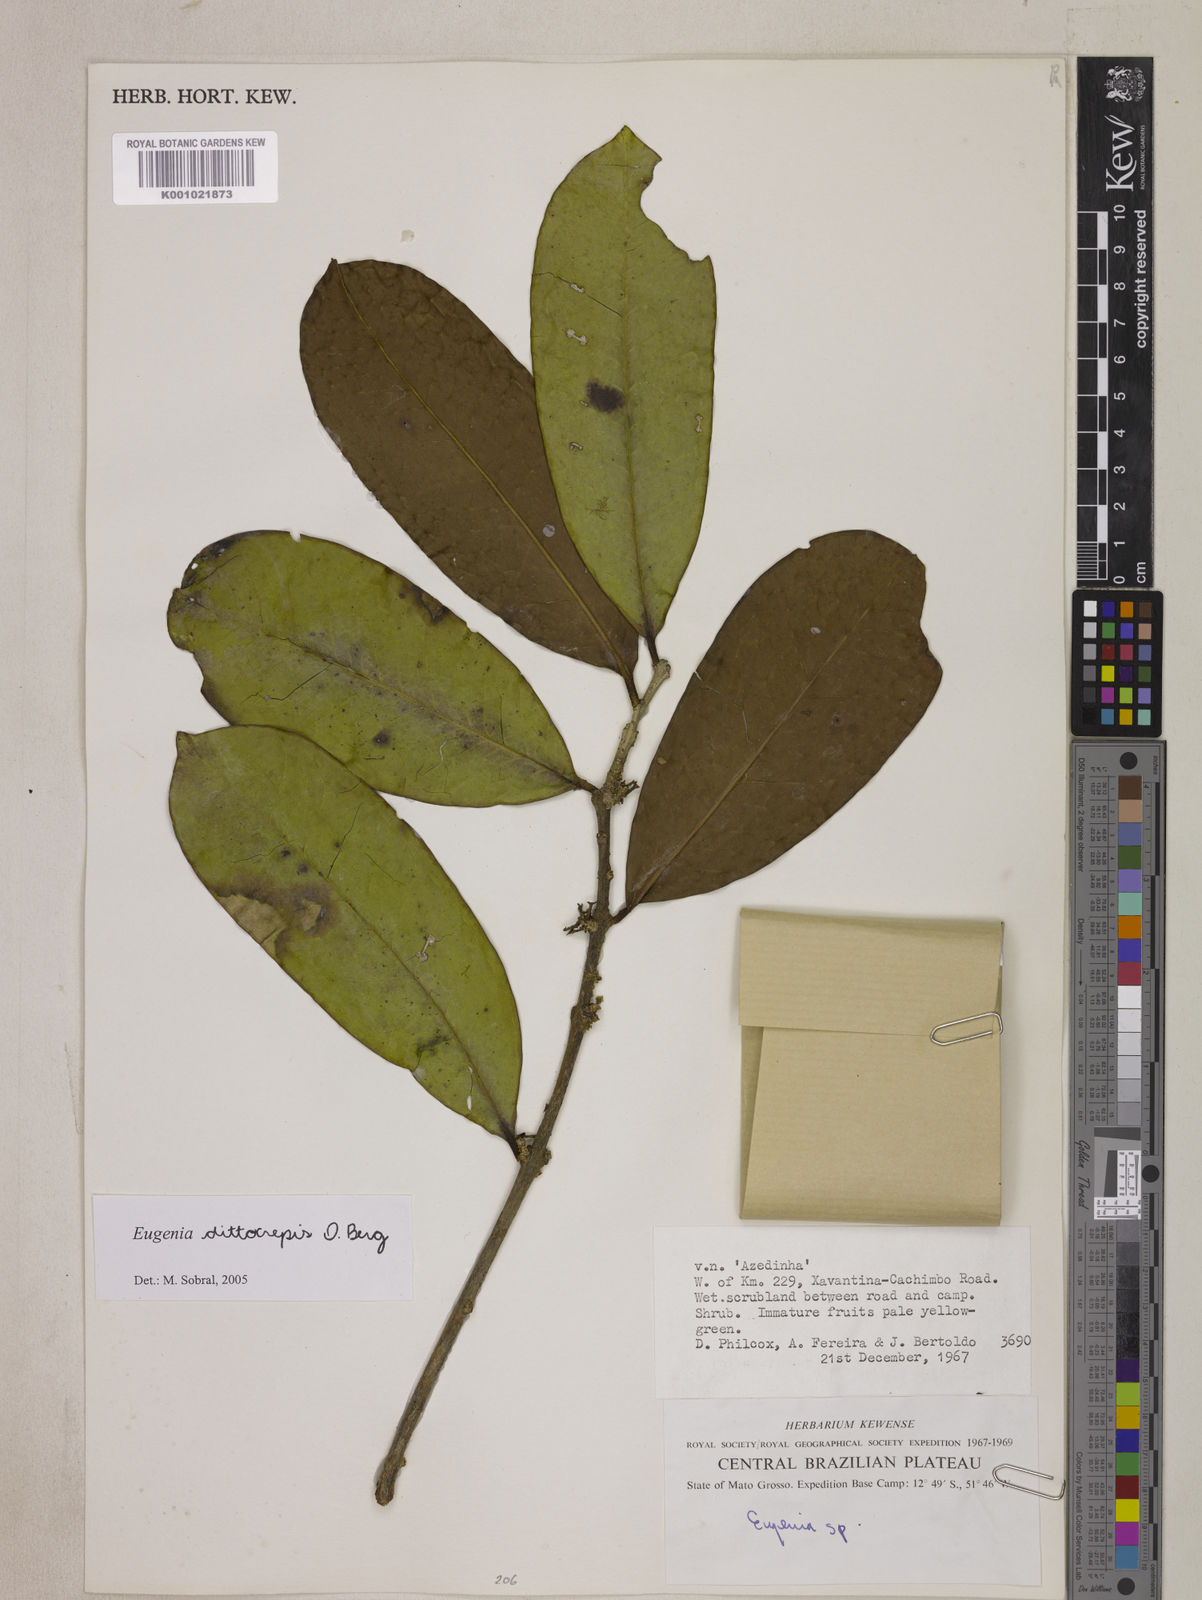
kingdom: Plantae
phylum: Tracheophyta
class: Magnoliopsida
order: Myrtales
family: Myrtaceae
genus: Eugenia
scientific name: Eugenia dittocrepis
